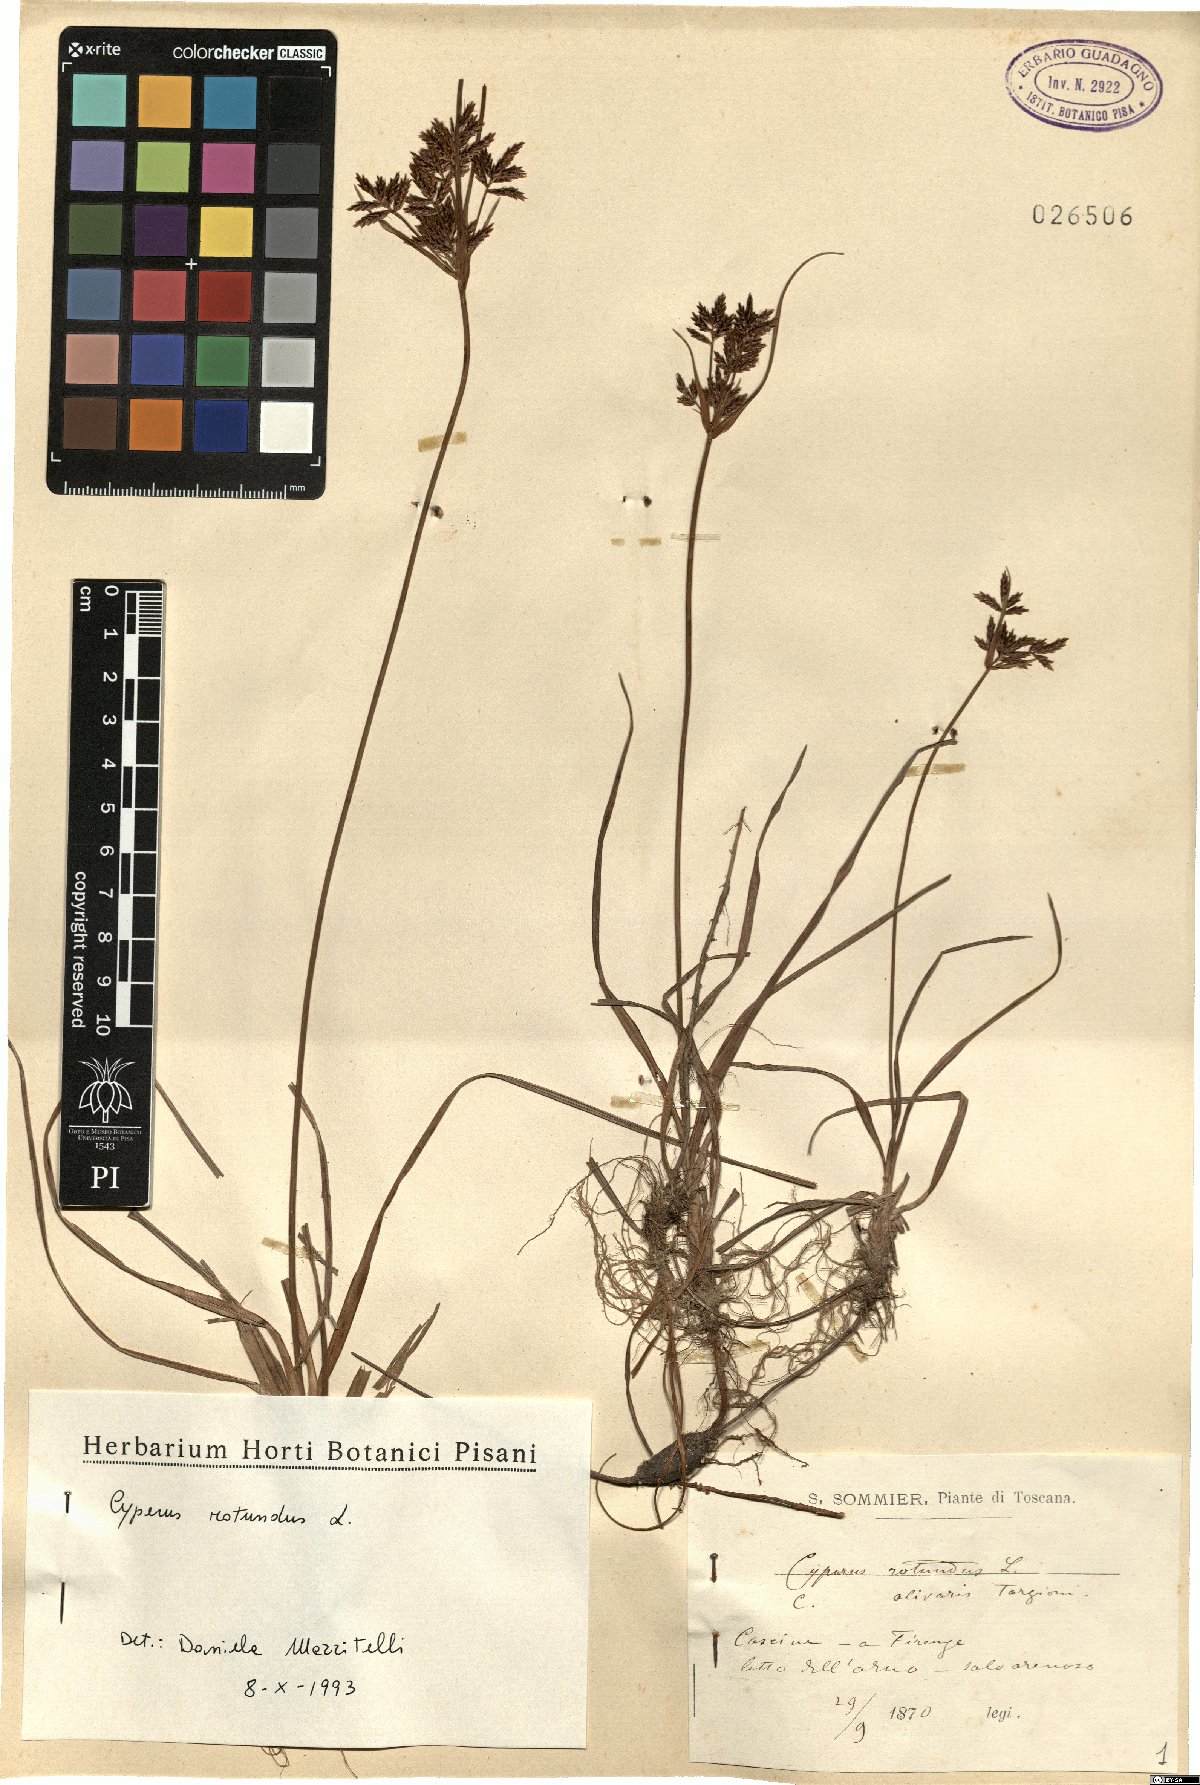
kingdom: Plantae
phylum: Tracheophyta
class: Liliopsida
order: Poales
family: Cyperaceae
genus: Cyperus
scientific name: Cyperus rotundus
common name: Nutgrass
